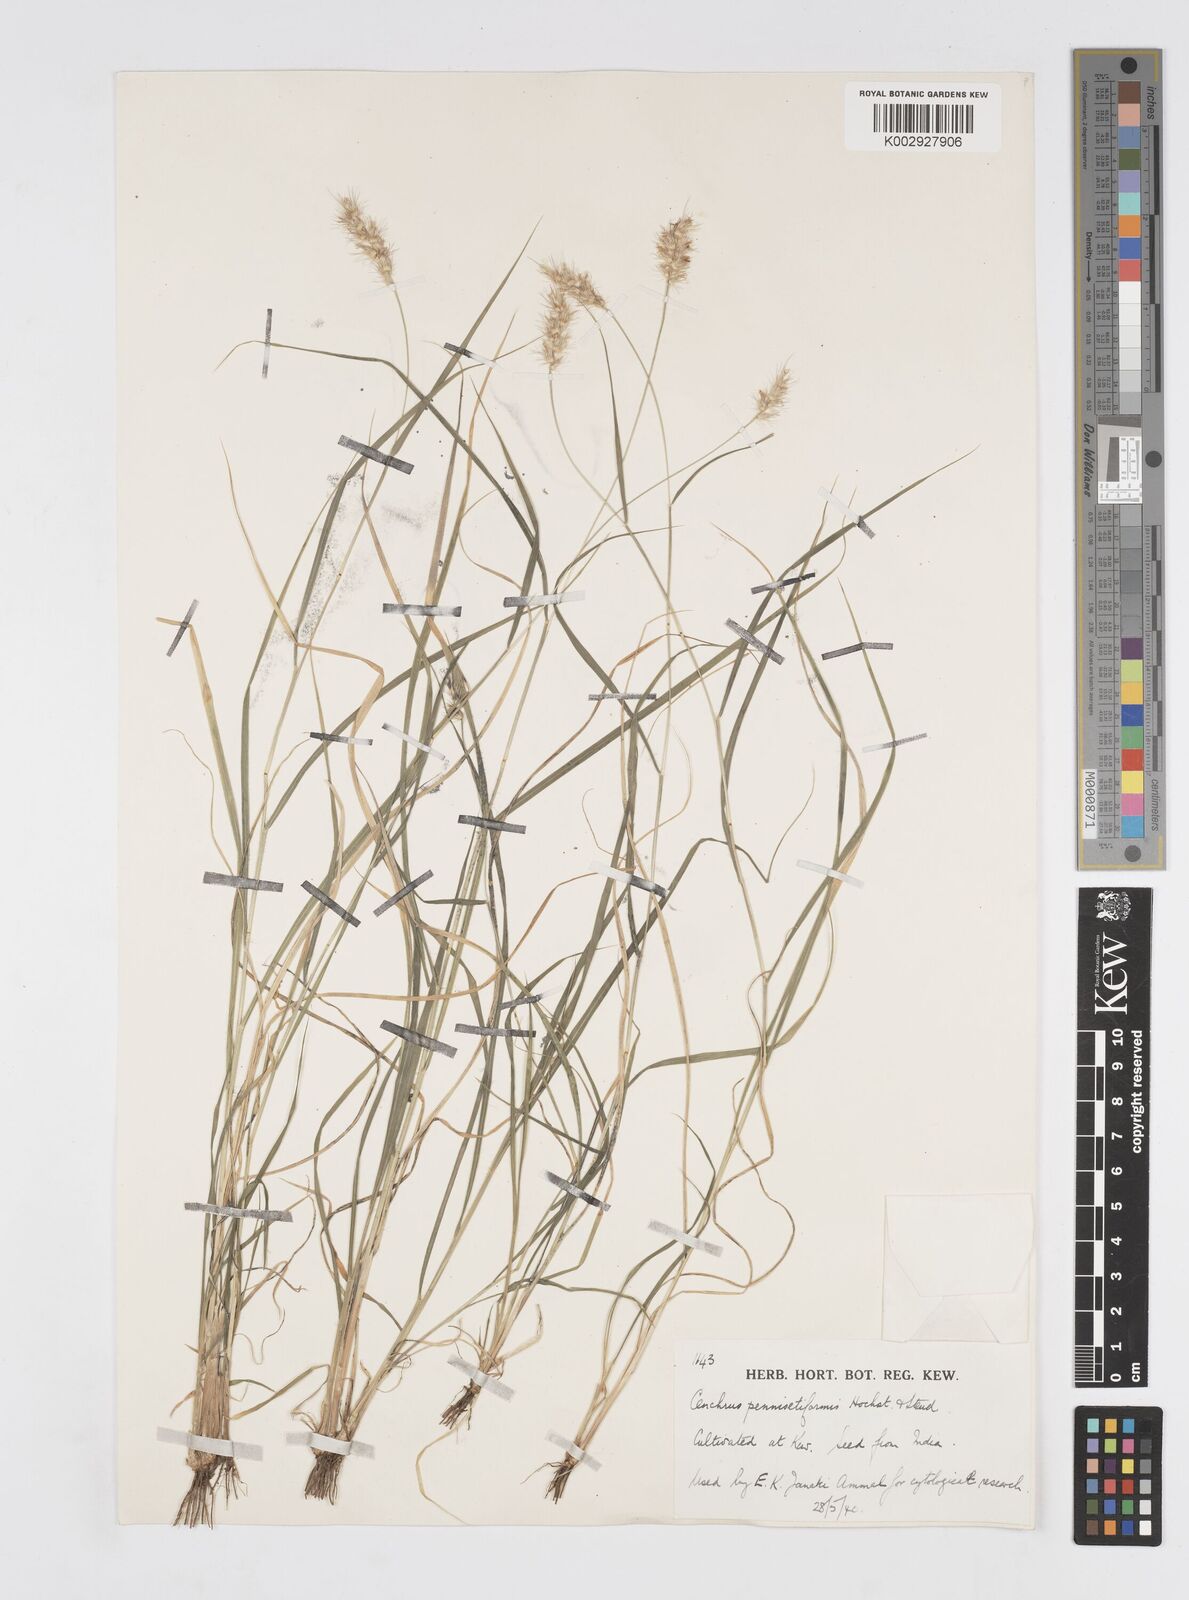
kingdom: Plantae
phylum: Tracheophyta
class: Liliopsida
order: Poales
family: Poaceae
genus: Cenchrus
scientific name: Cenchrus pennisetiformis
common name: Cloncurry
